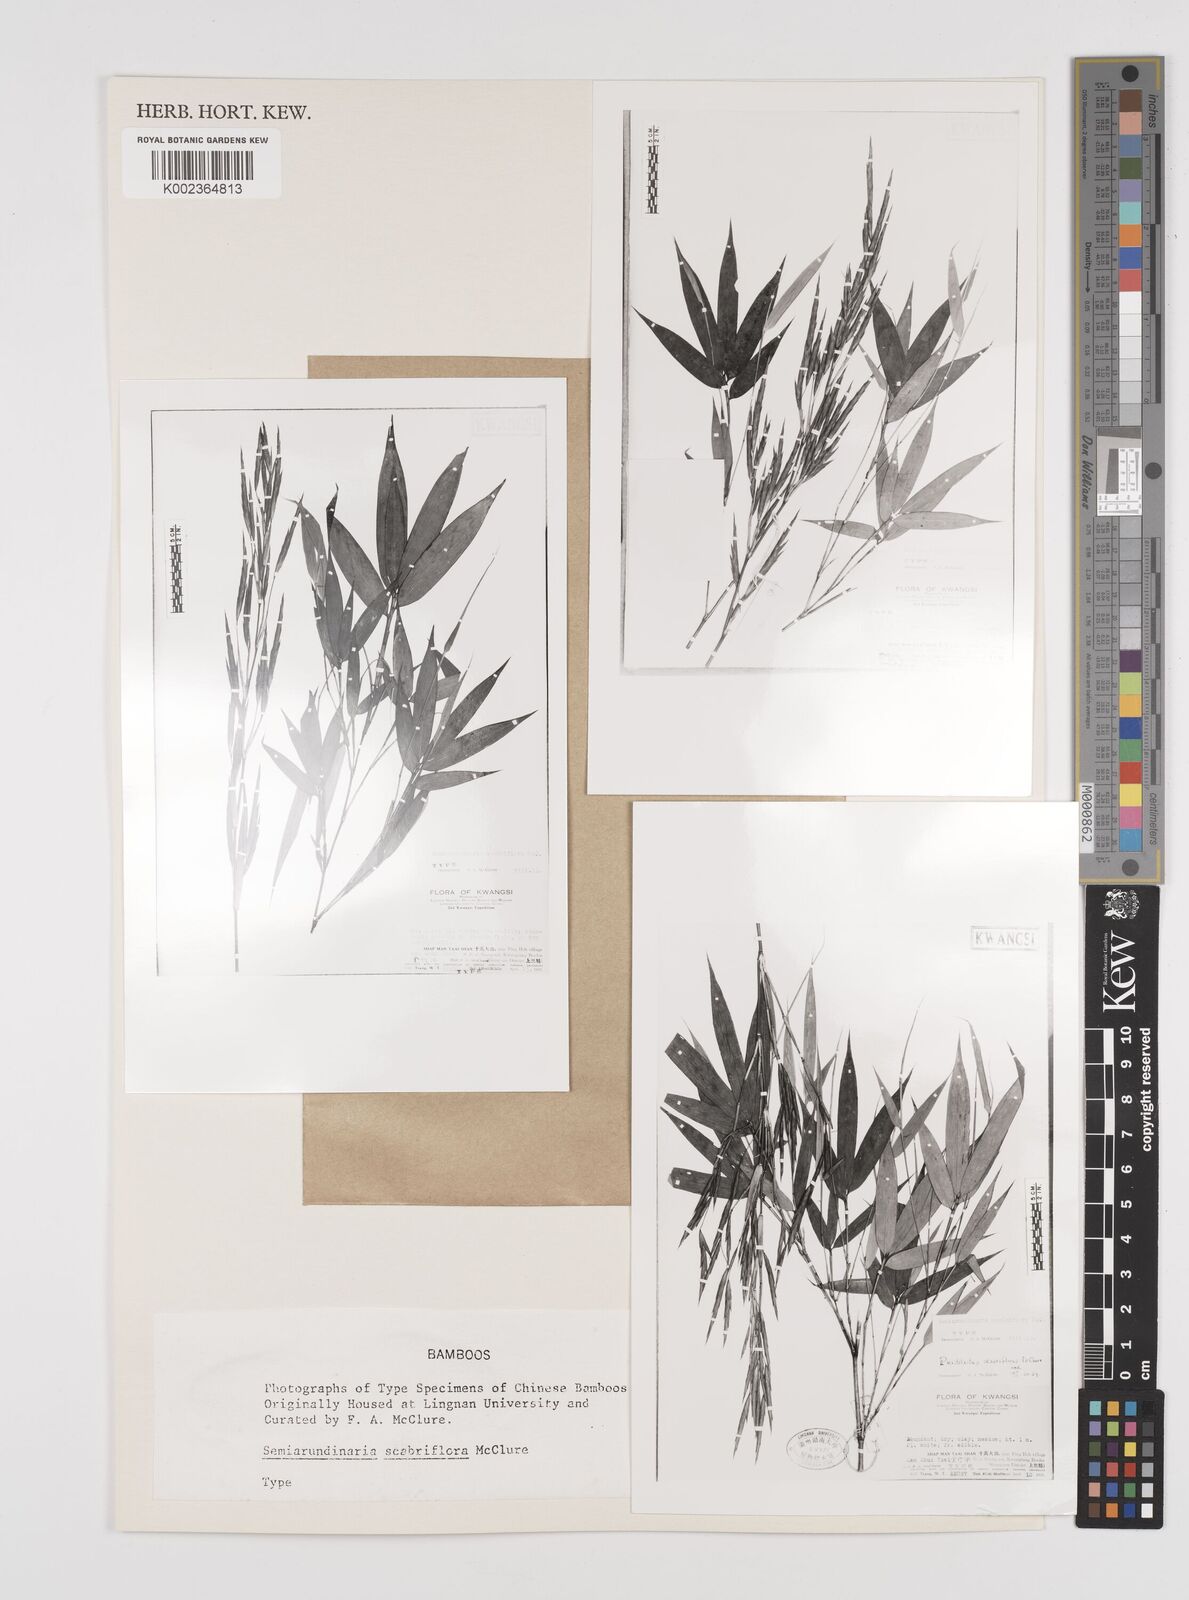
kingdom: Plantae
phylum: Tracheophyta
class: Liliopsida
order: Poales
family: Poaceae
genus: Semiarundinaria
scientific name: Semiarundinaria fastuosa
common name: Narihira bamboo
